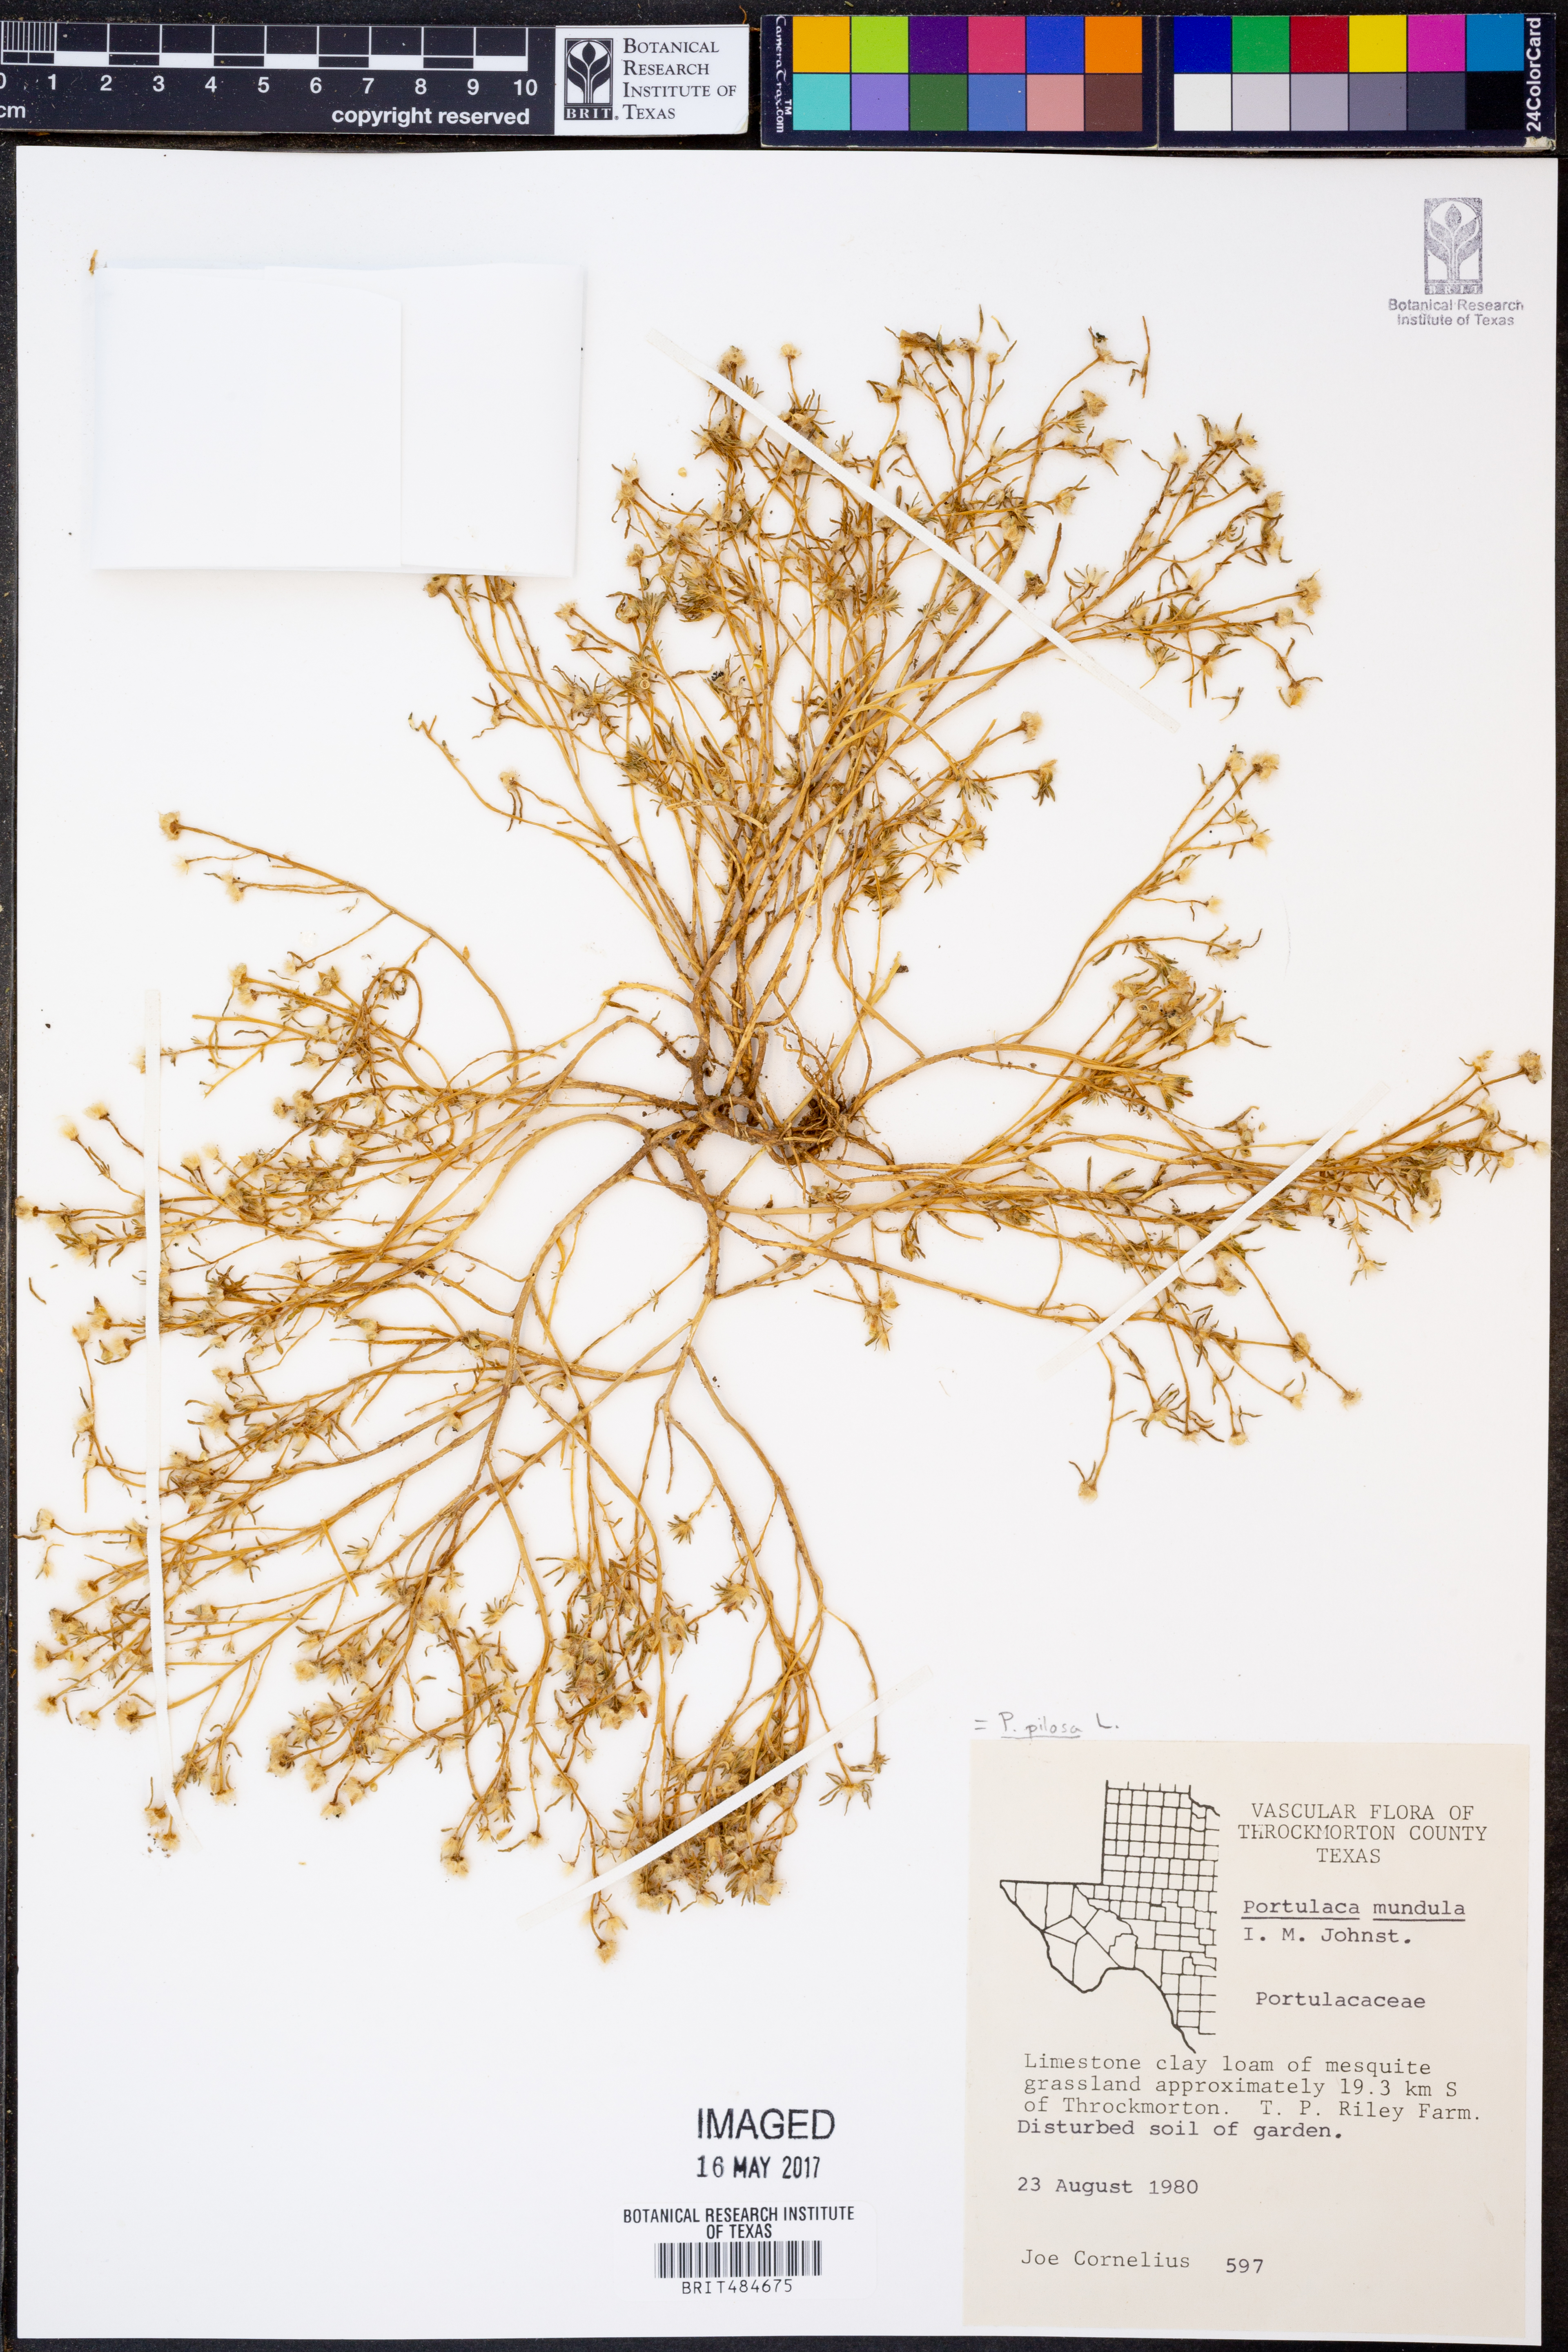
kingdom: Plantae
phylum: Tracheophyta
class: Magnoliopsida
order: Caryophyllales
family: Portulacaceae
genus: Portulaca
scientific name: Portulaca pilosa
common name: Kiss me quick
